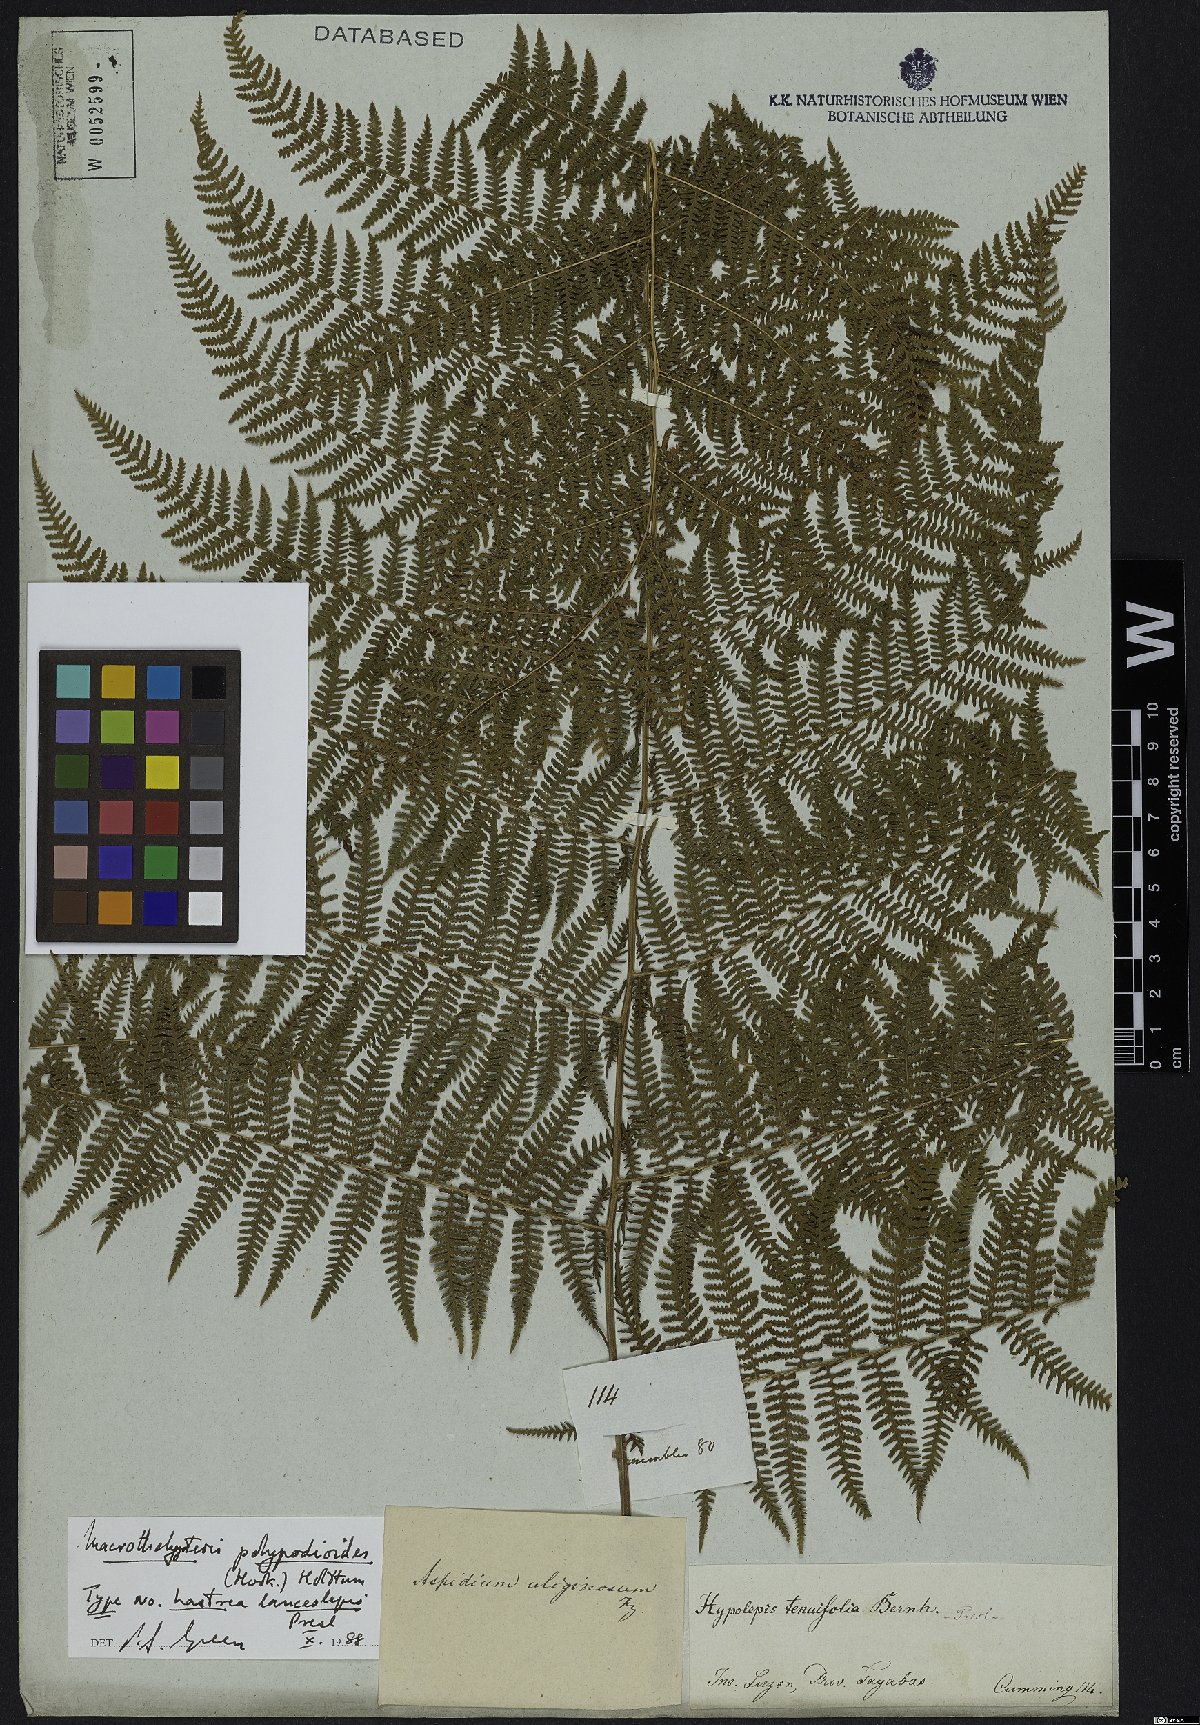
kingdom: Plantae
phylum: Tracheophyta
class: Polypodiopsida
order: Polypodiales
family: Thelypteridaceae
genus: Macrothelypteris
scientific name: Macrothelypteris polypodioides
